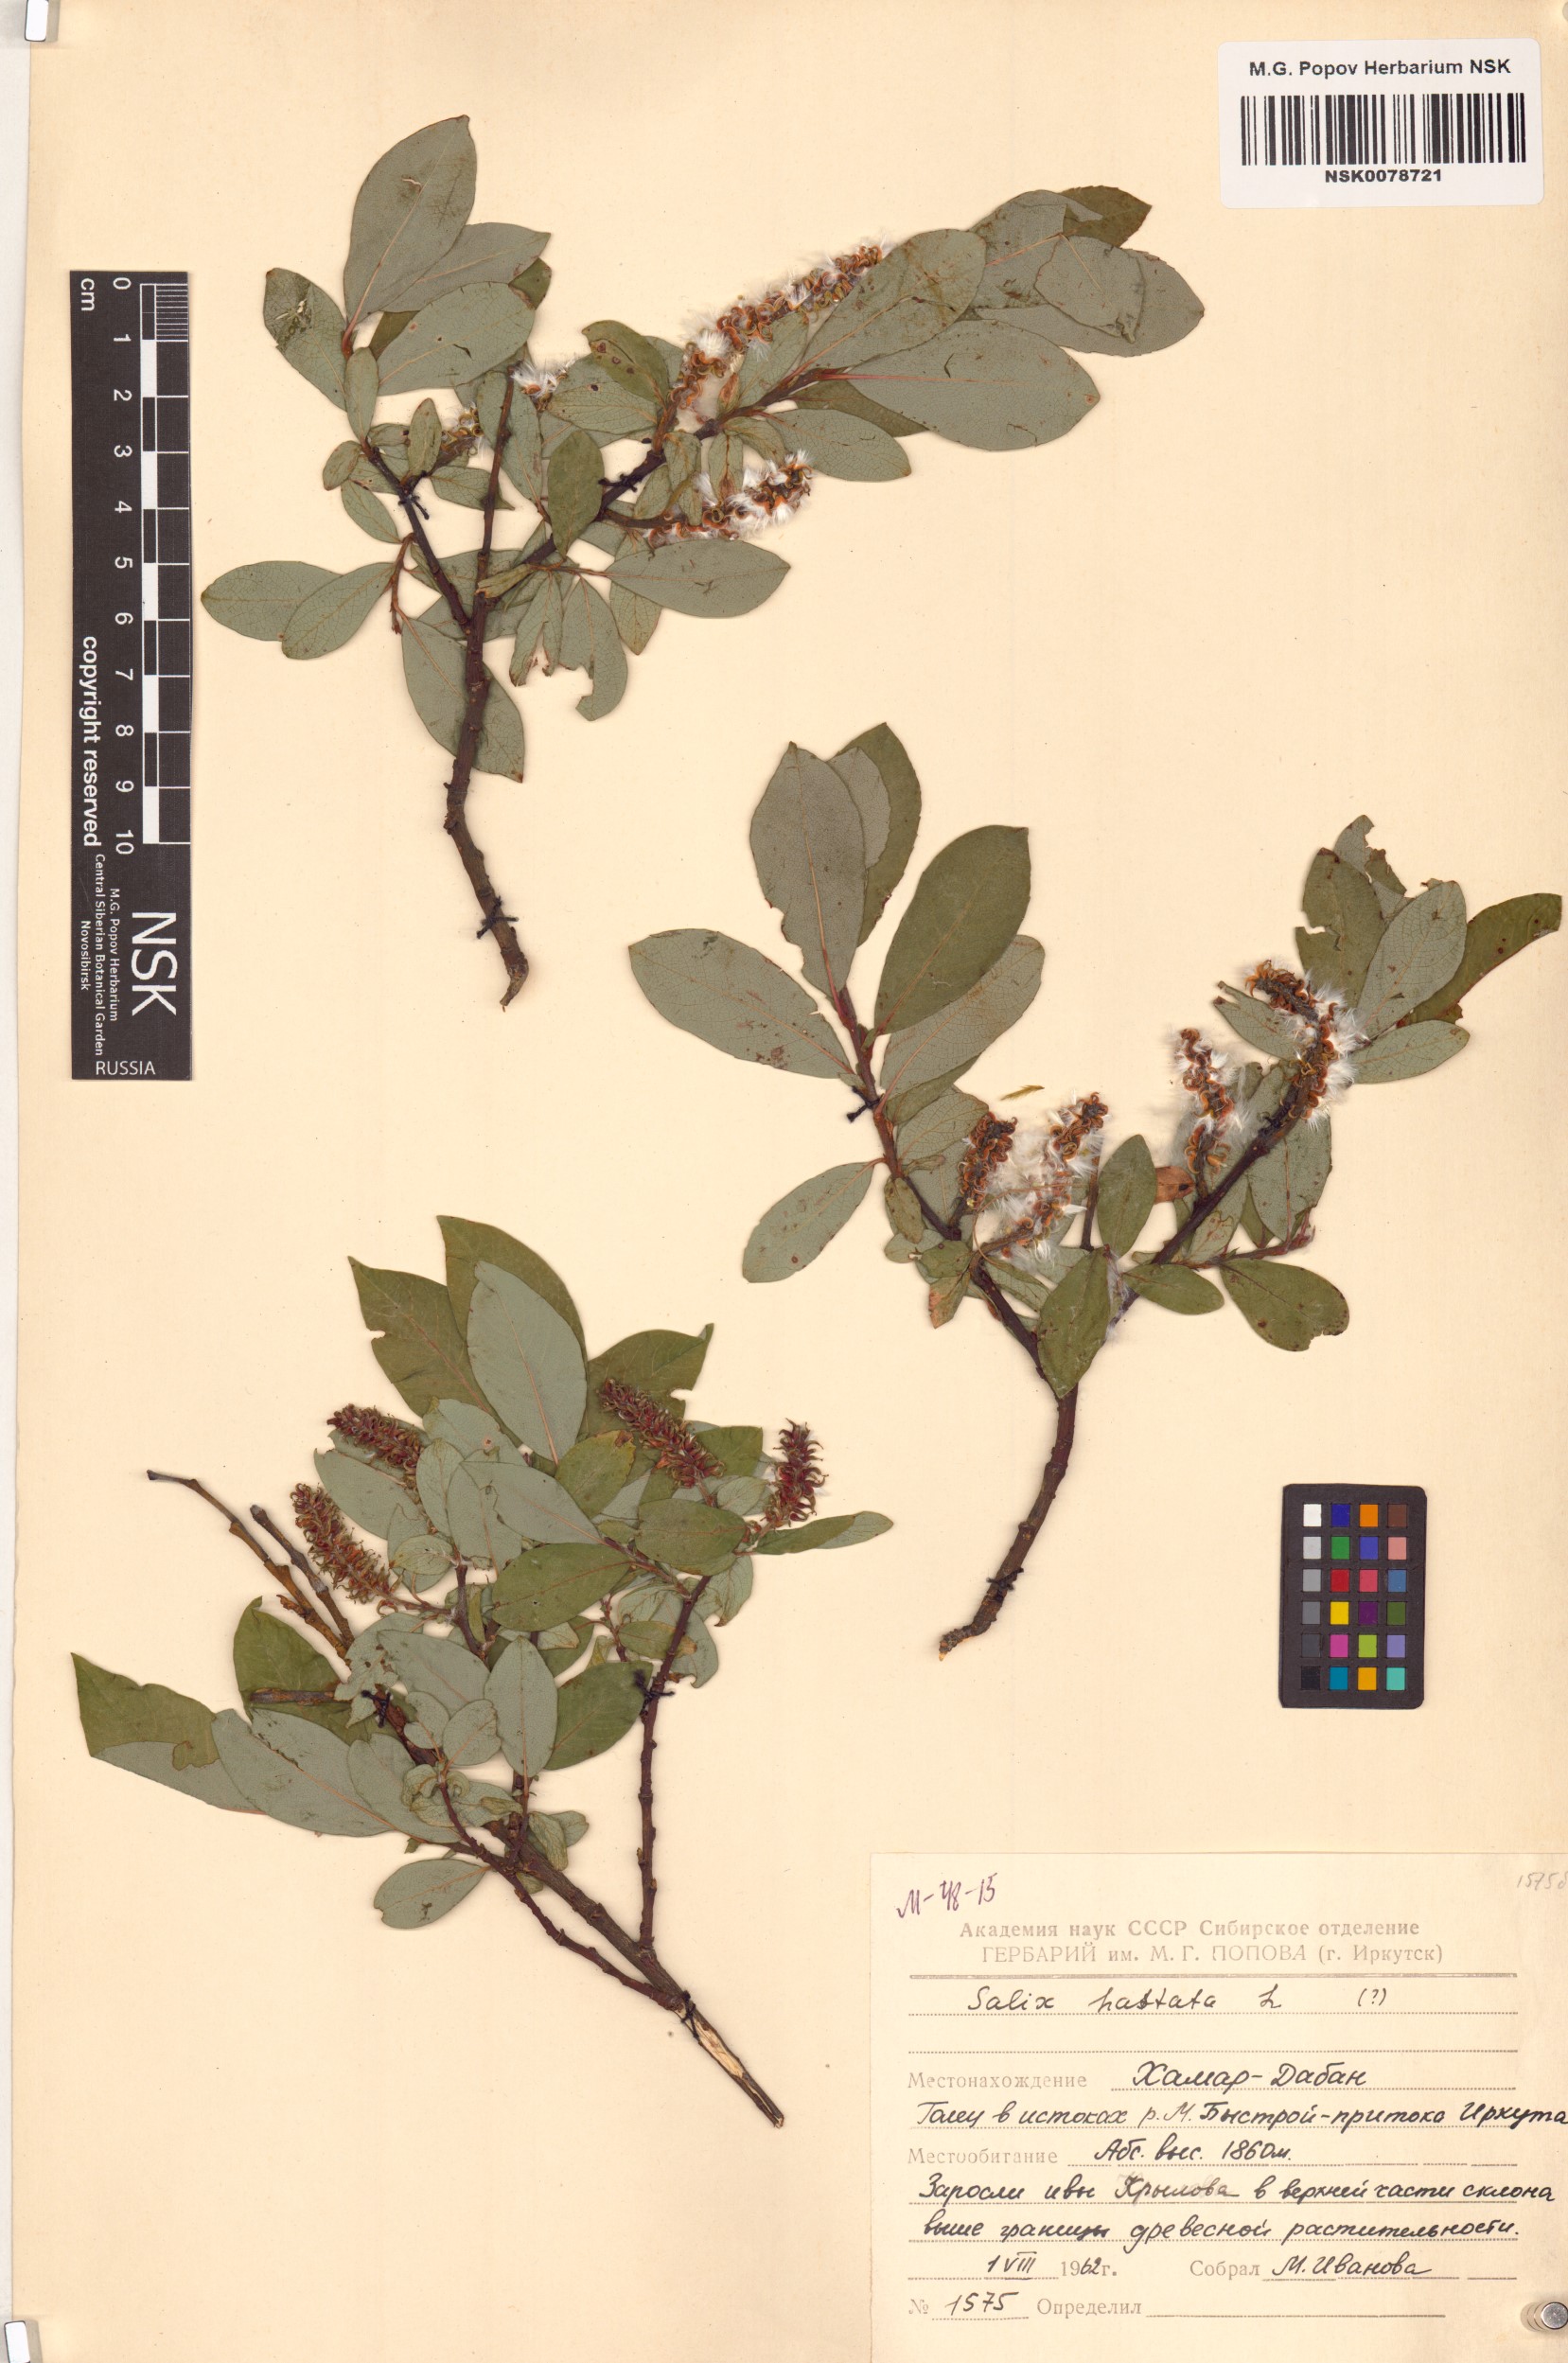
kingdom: Plantae
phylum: Tracheophyta
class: Magnoliopsida
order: Malpighiales
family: Salicaceae
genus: Salix
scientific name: Salix hastata
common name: Halberd willow
